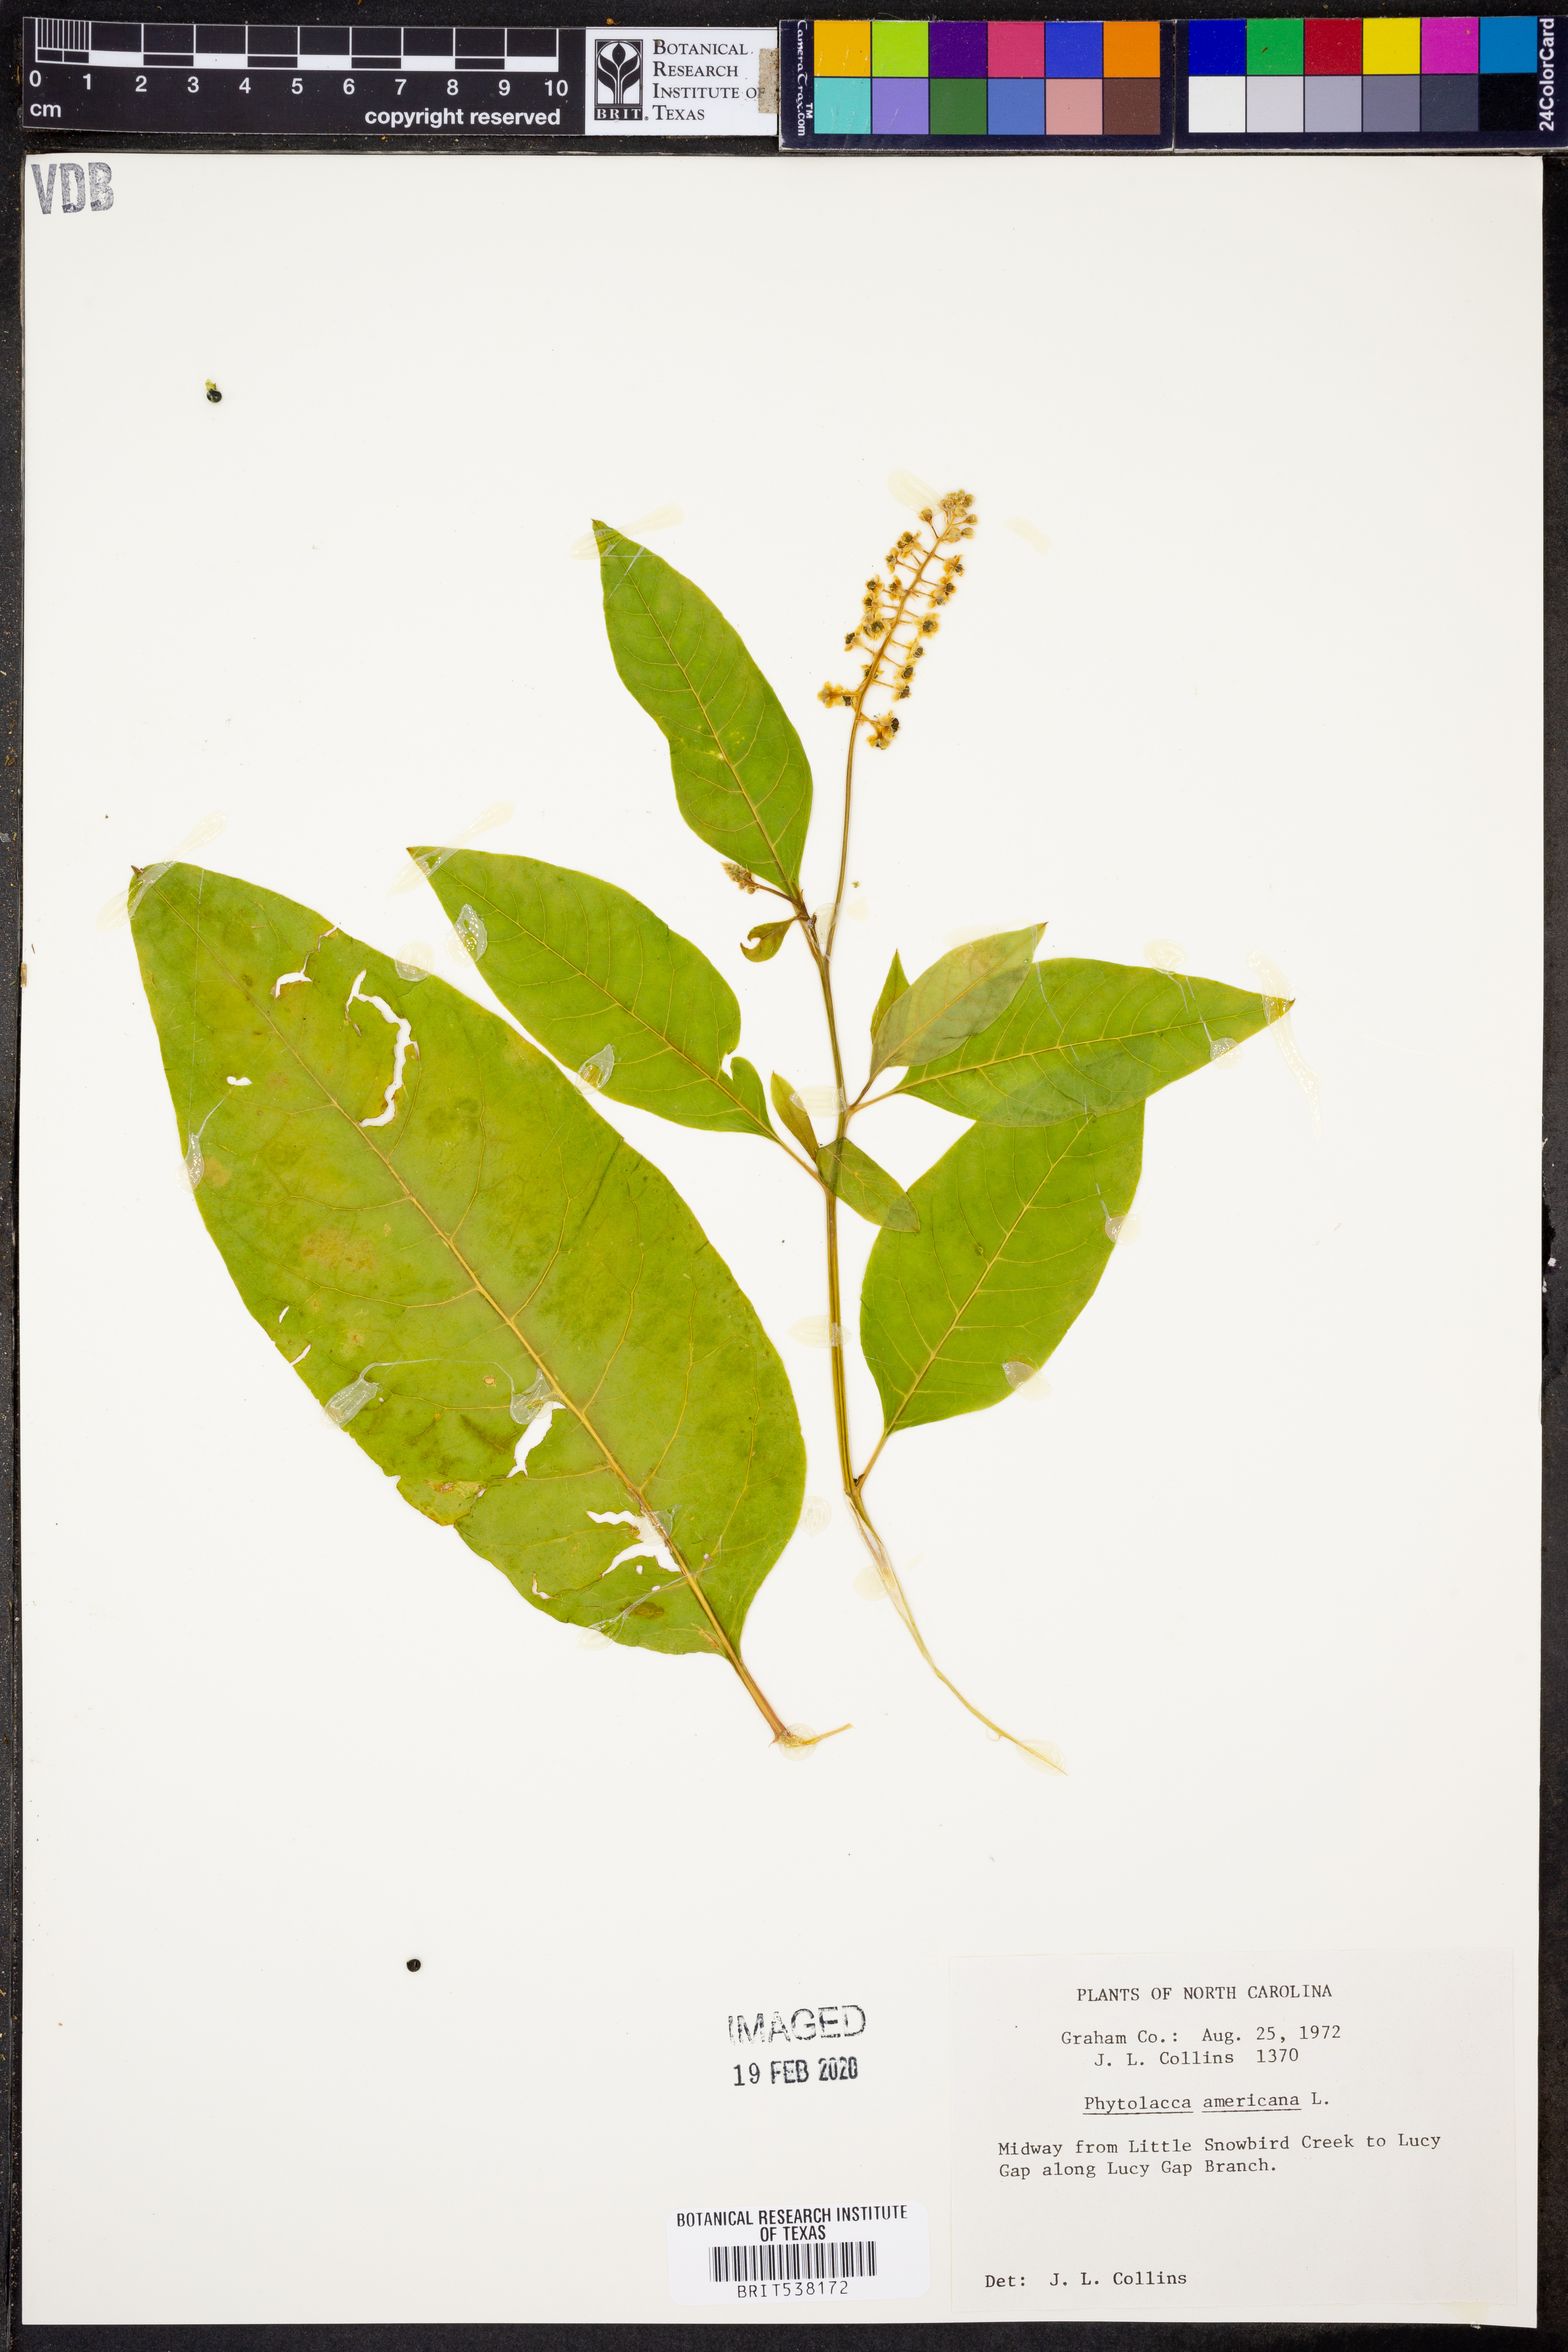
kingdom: Plantae
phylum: Tracheophyta
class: Magnoliopsida
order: Caryophyllales
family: Phytolaccaceae
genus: Phytolacca
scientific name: Phytolacca americana
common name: American pokeweed
